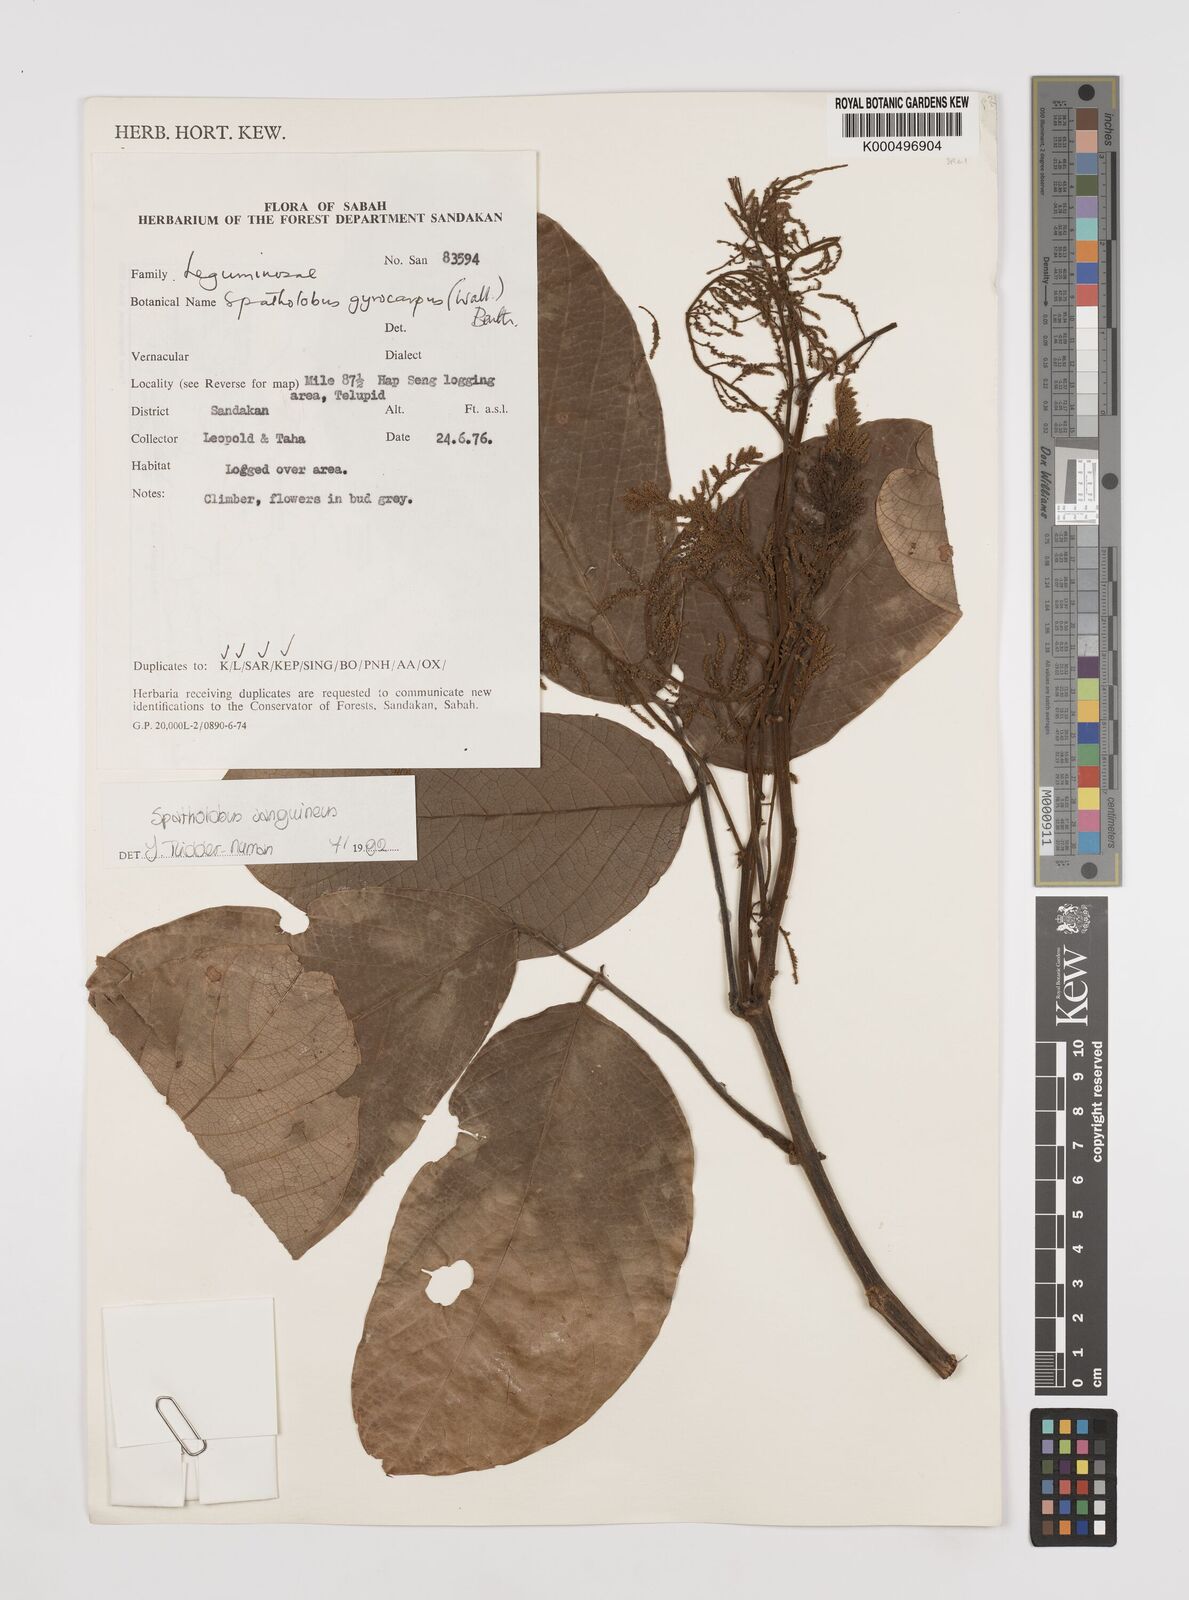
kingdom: Plantae
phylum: Tracheophyta
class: Magnoliopsida
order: Fabales
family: Fabaceae
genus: Spatholobus
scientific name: Spatholobus
